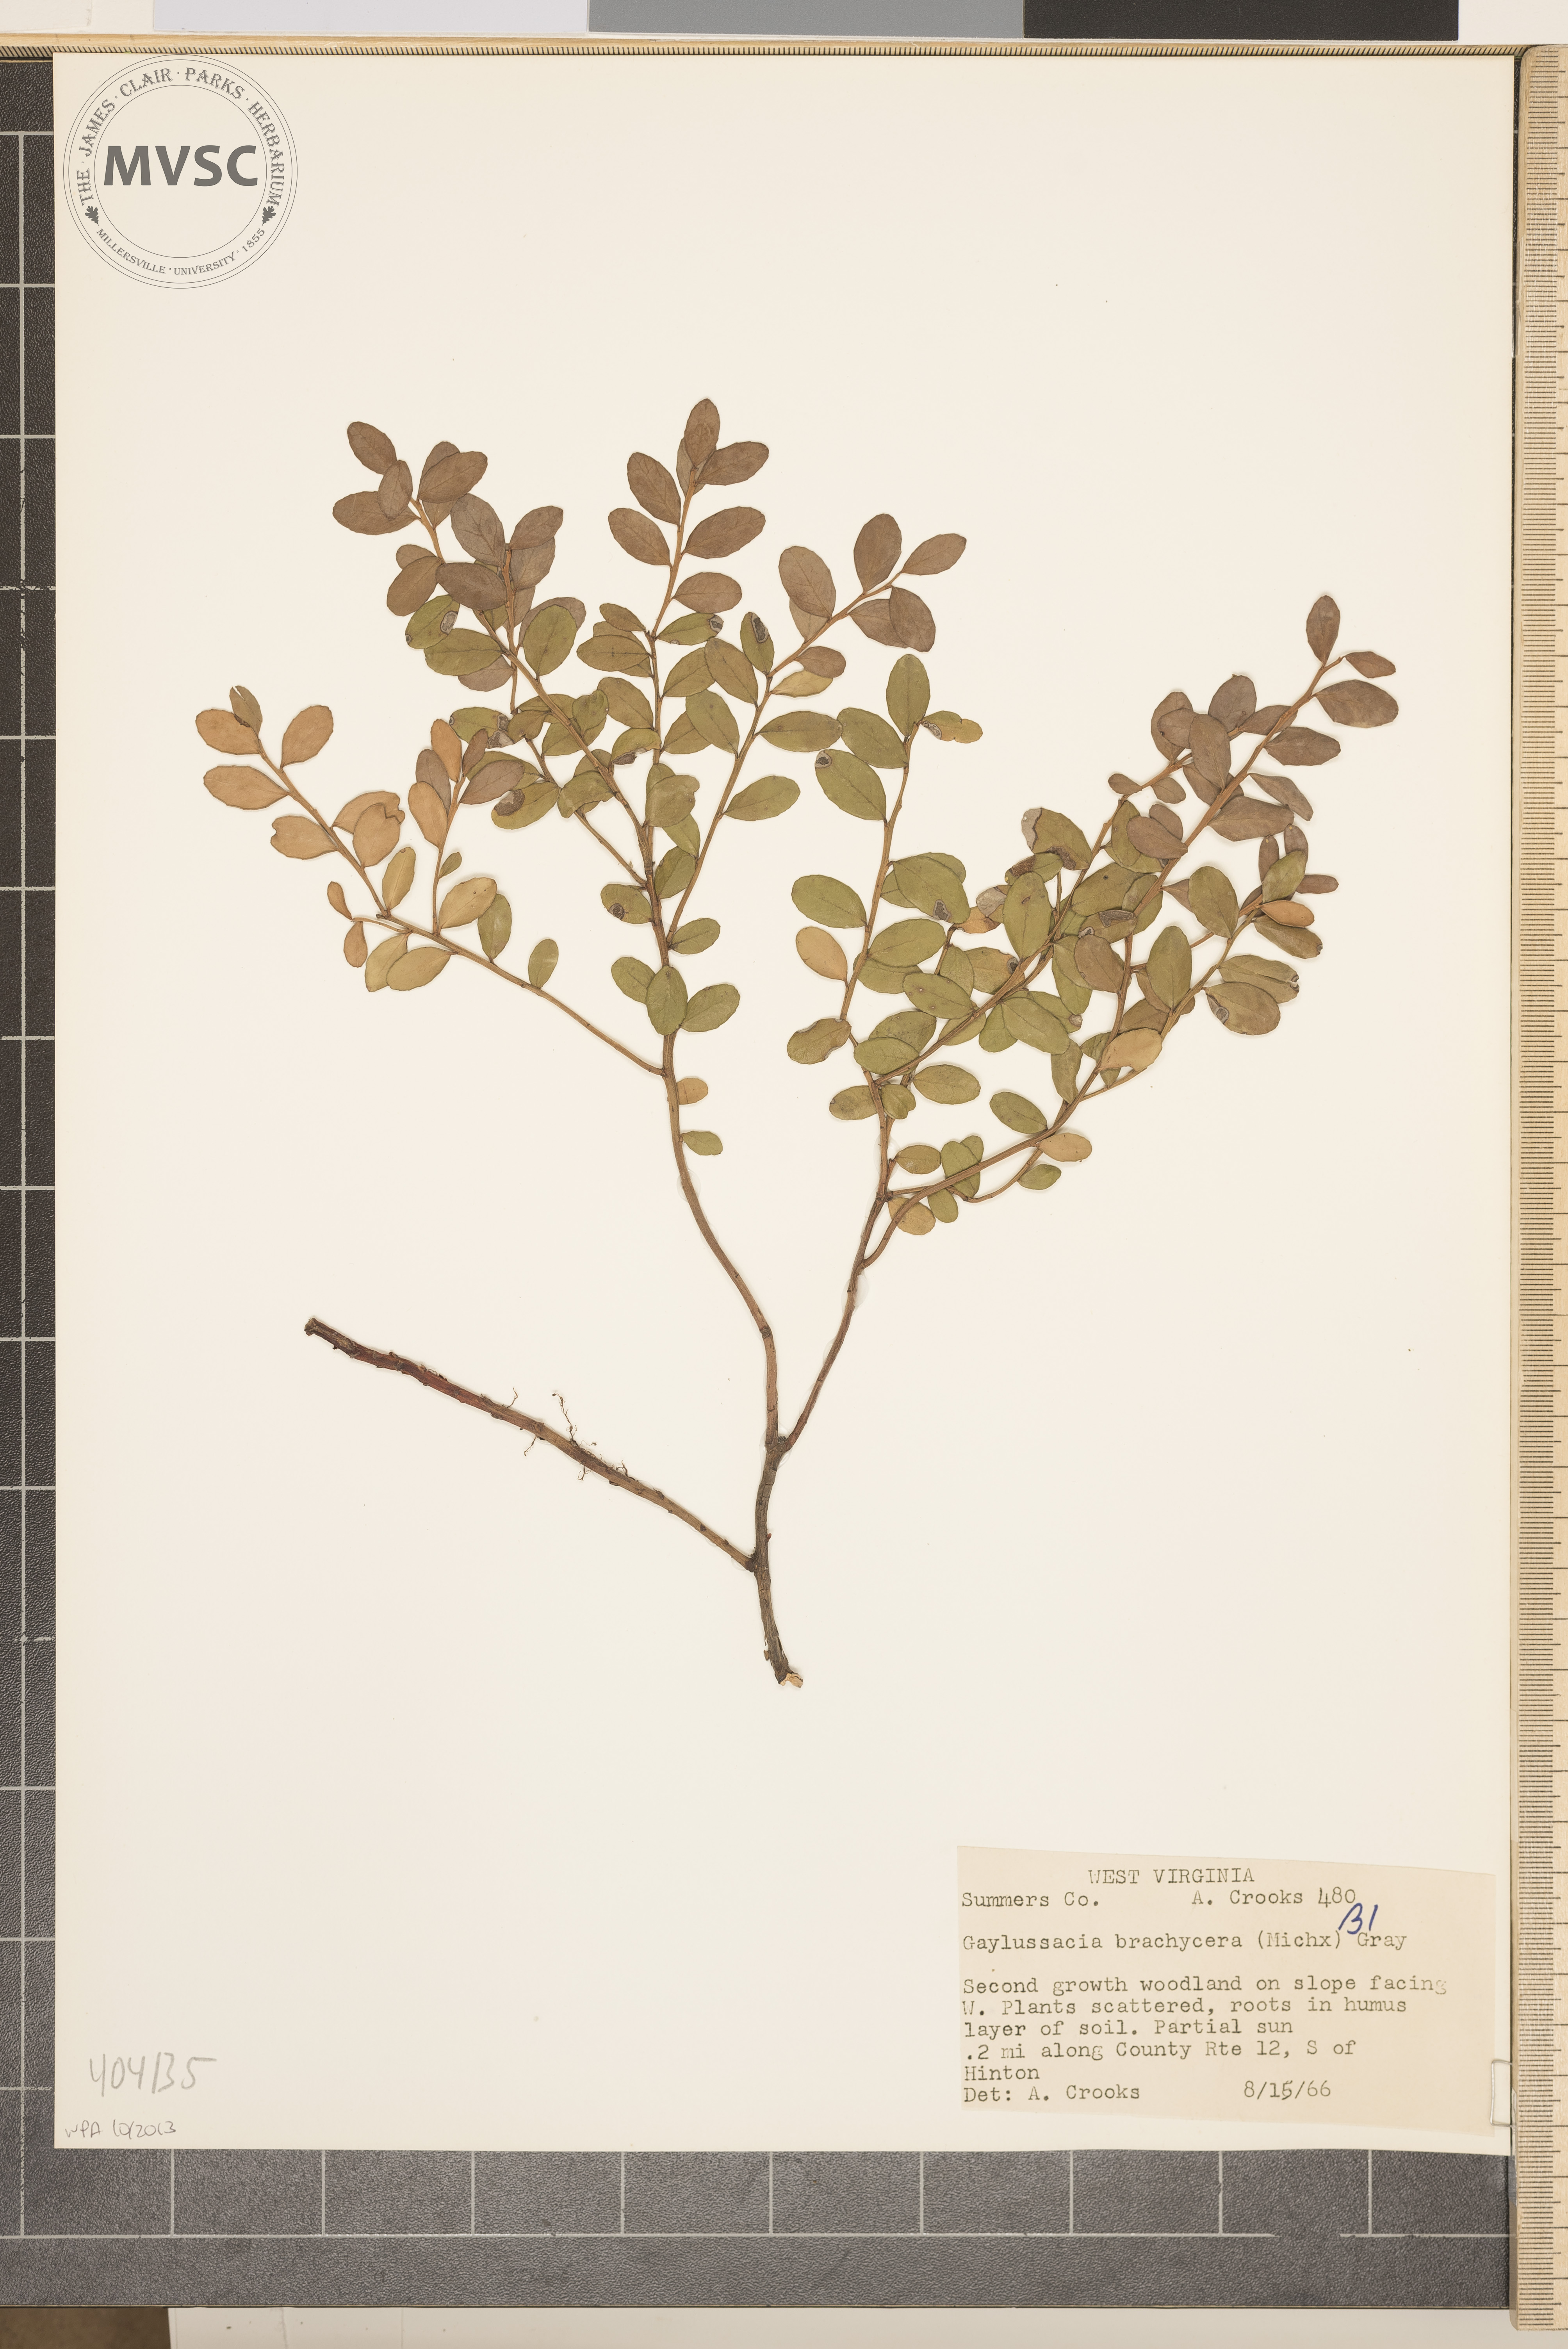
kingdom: Plantae
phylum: Tracheophyta
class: Magnoliopsida
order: Ericales
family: Ericaceae
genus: Gaylussacia
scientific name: Gaylussacia brachycera
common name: Box huckleberry
